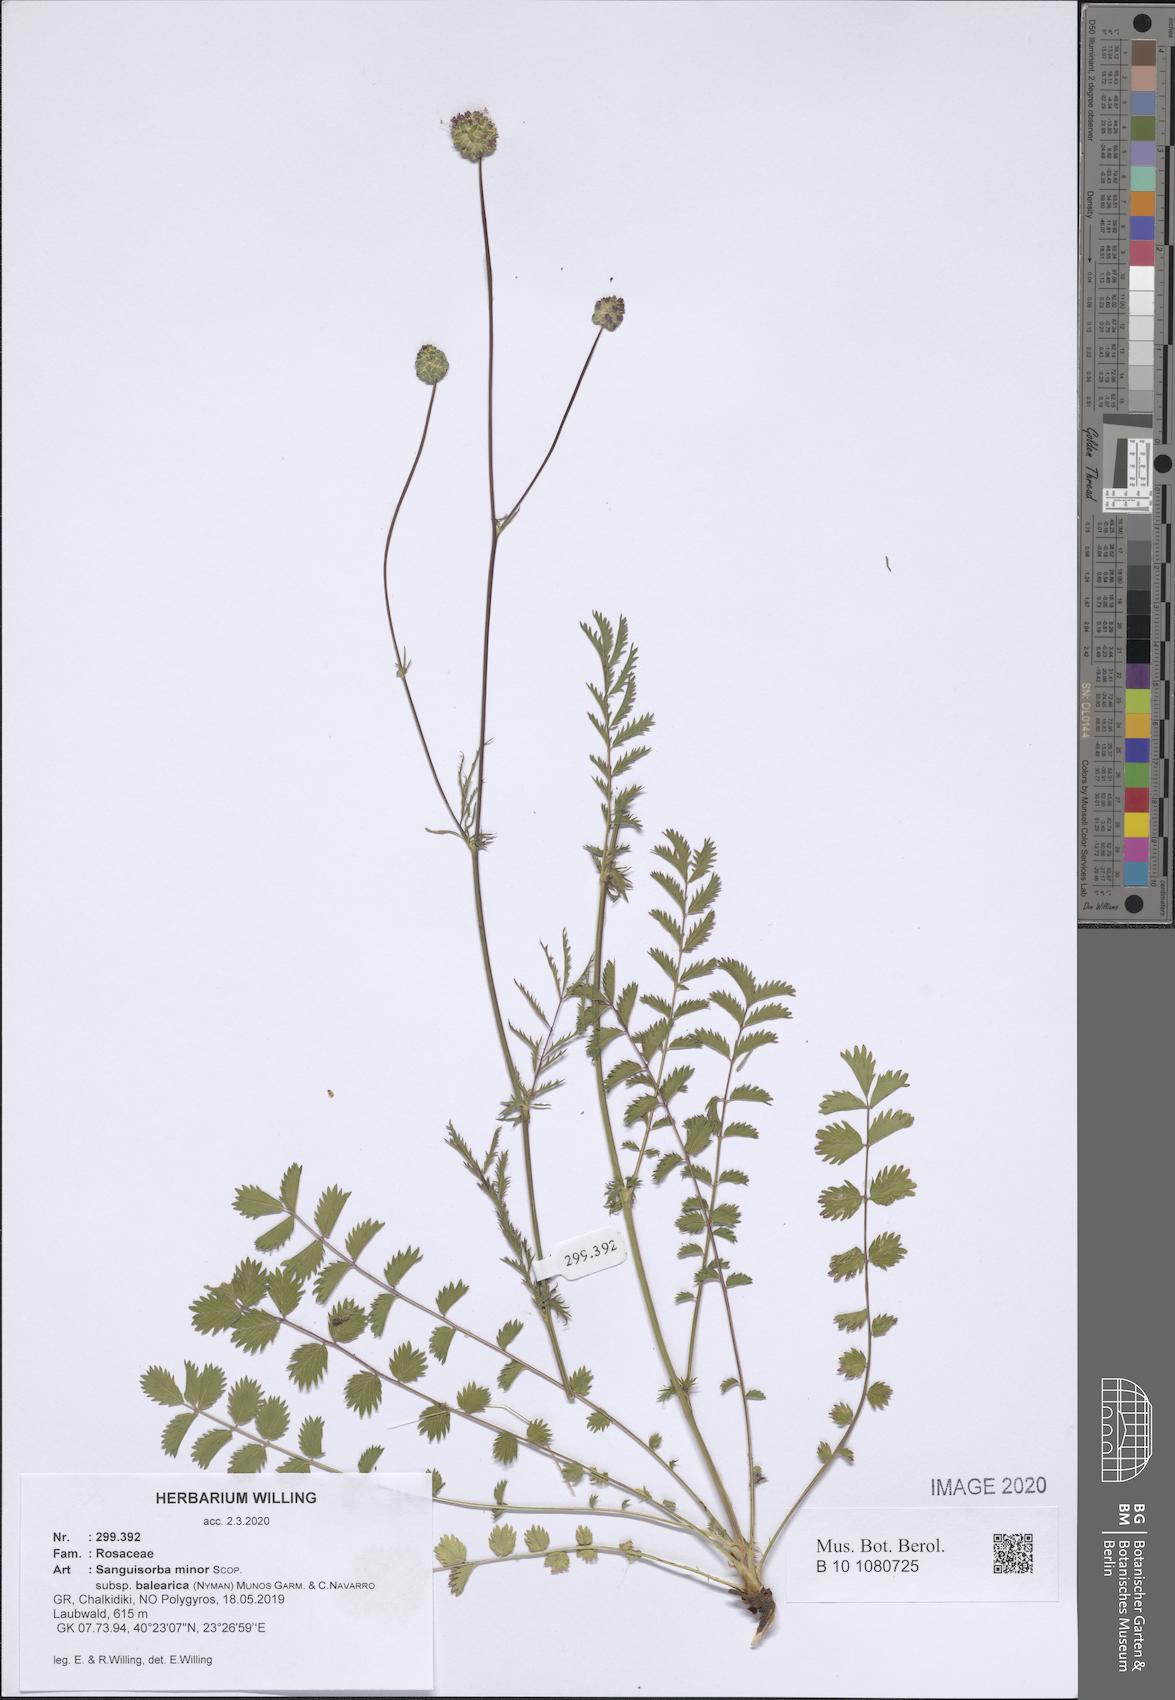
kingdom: Plantae
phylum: Tracheophyta
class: Magnoliopsida
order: Rosales
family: Rosaceae
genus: Poterium
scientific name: Poterium sanguisorba
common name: Salad burnet
